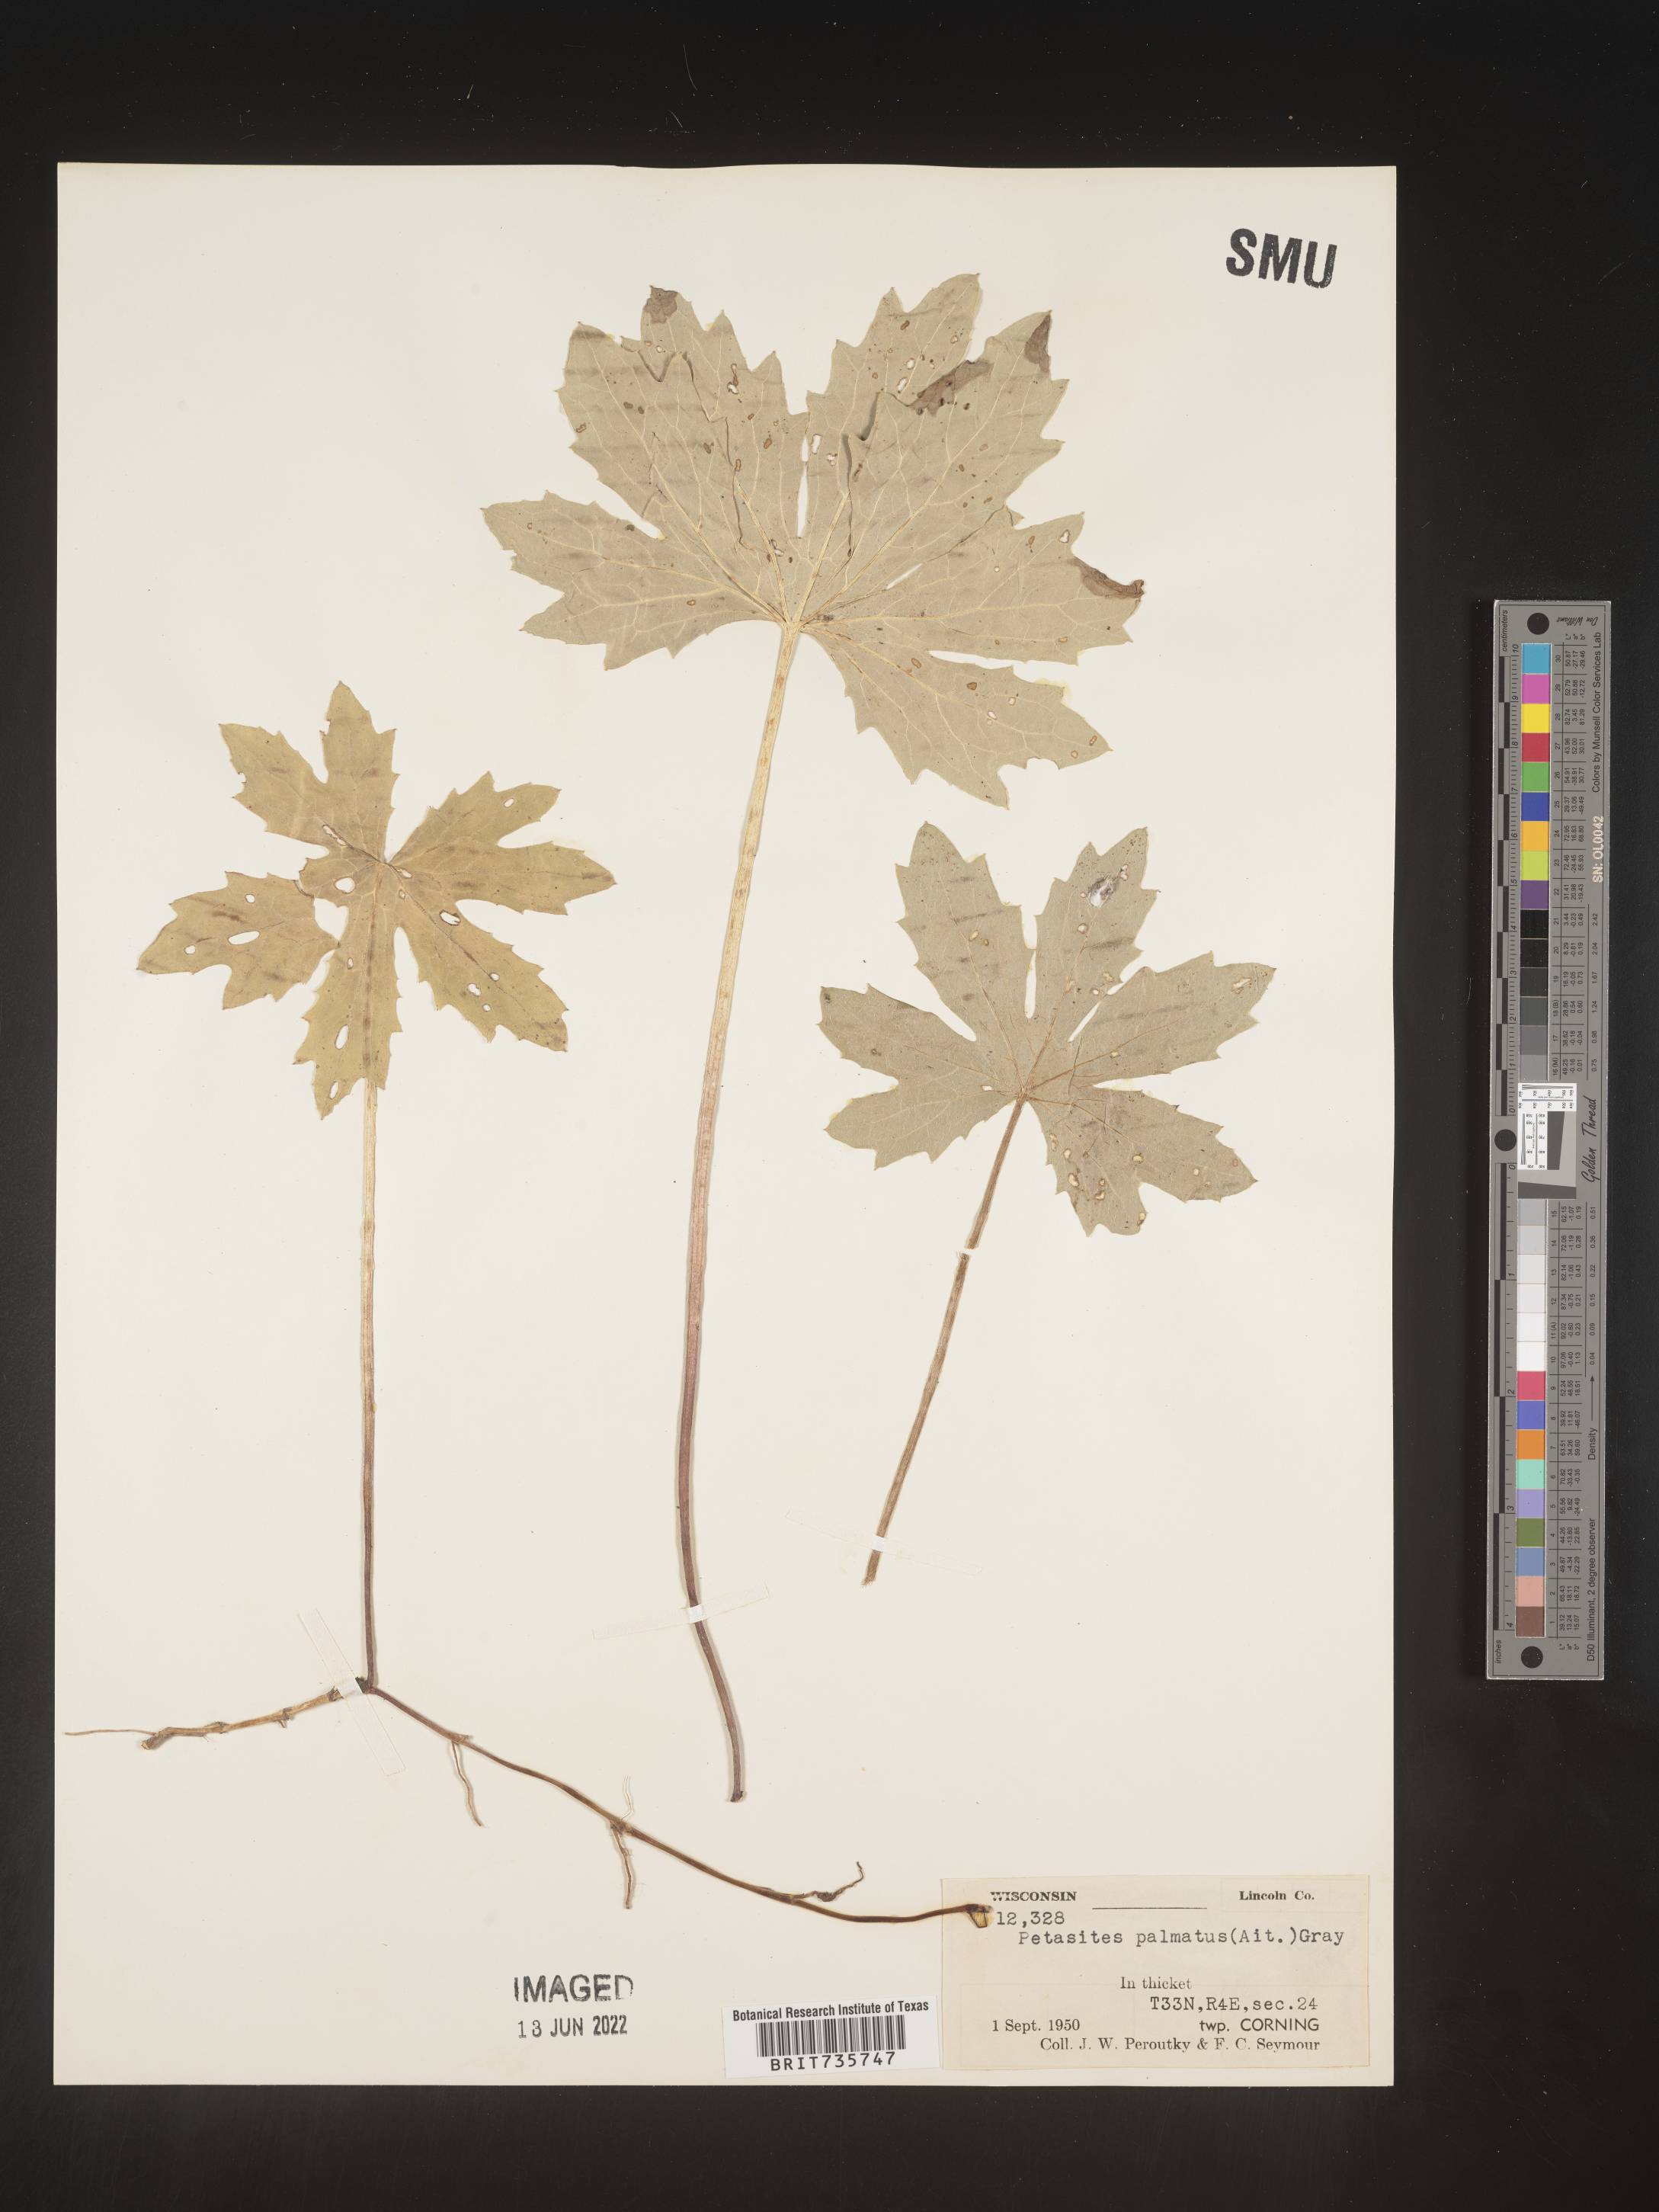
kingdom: Plantae
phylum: Tracheophyta
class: Magnoliopsida
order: Asterales
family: Asteraceae
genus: Petasites
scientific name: Petasites frigidus
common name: Arctic butterbur
